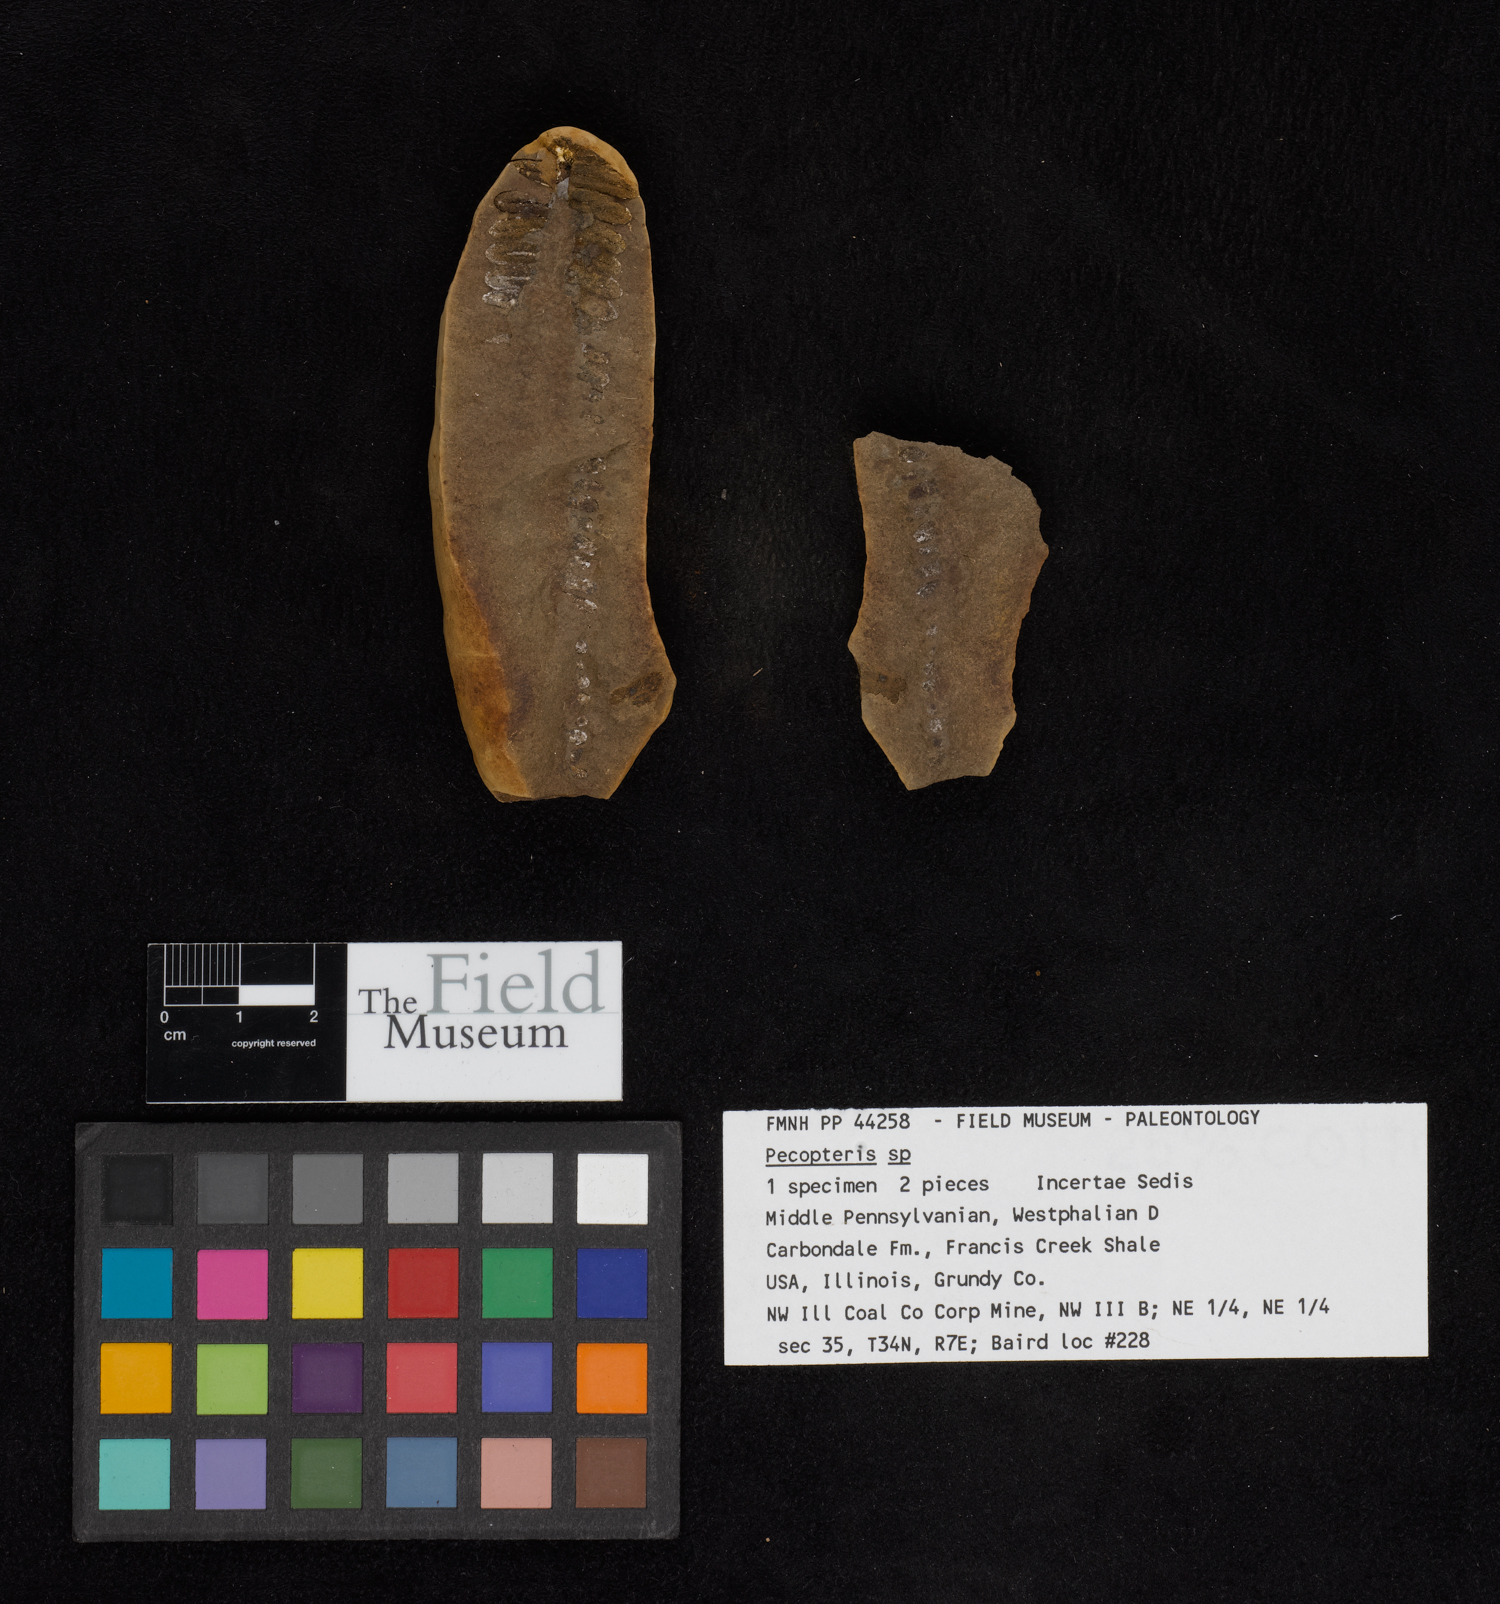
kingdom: Plantae
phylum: Tracheophyta
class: Polypodiopsida
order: Marattiales
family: Asterothecaceae
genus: Pecopteris
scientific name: Pecopteris
